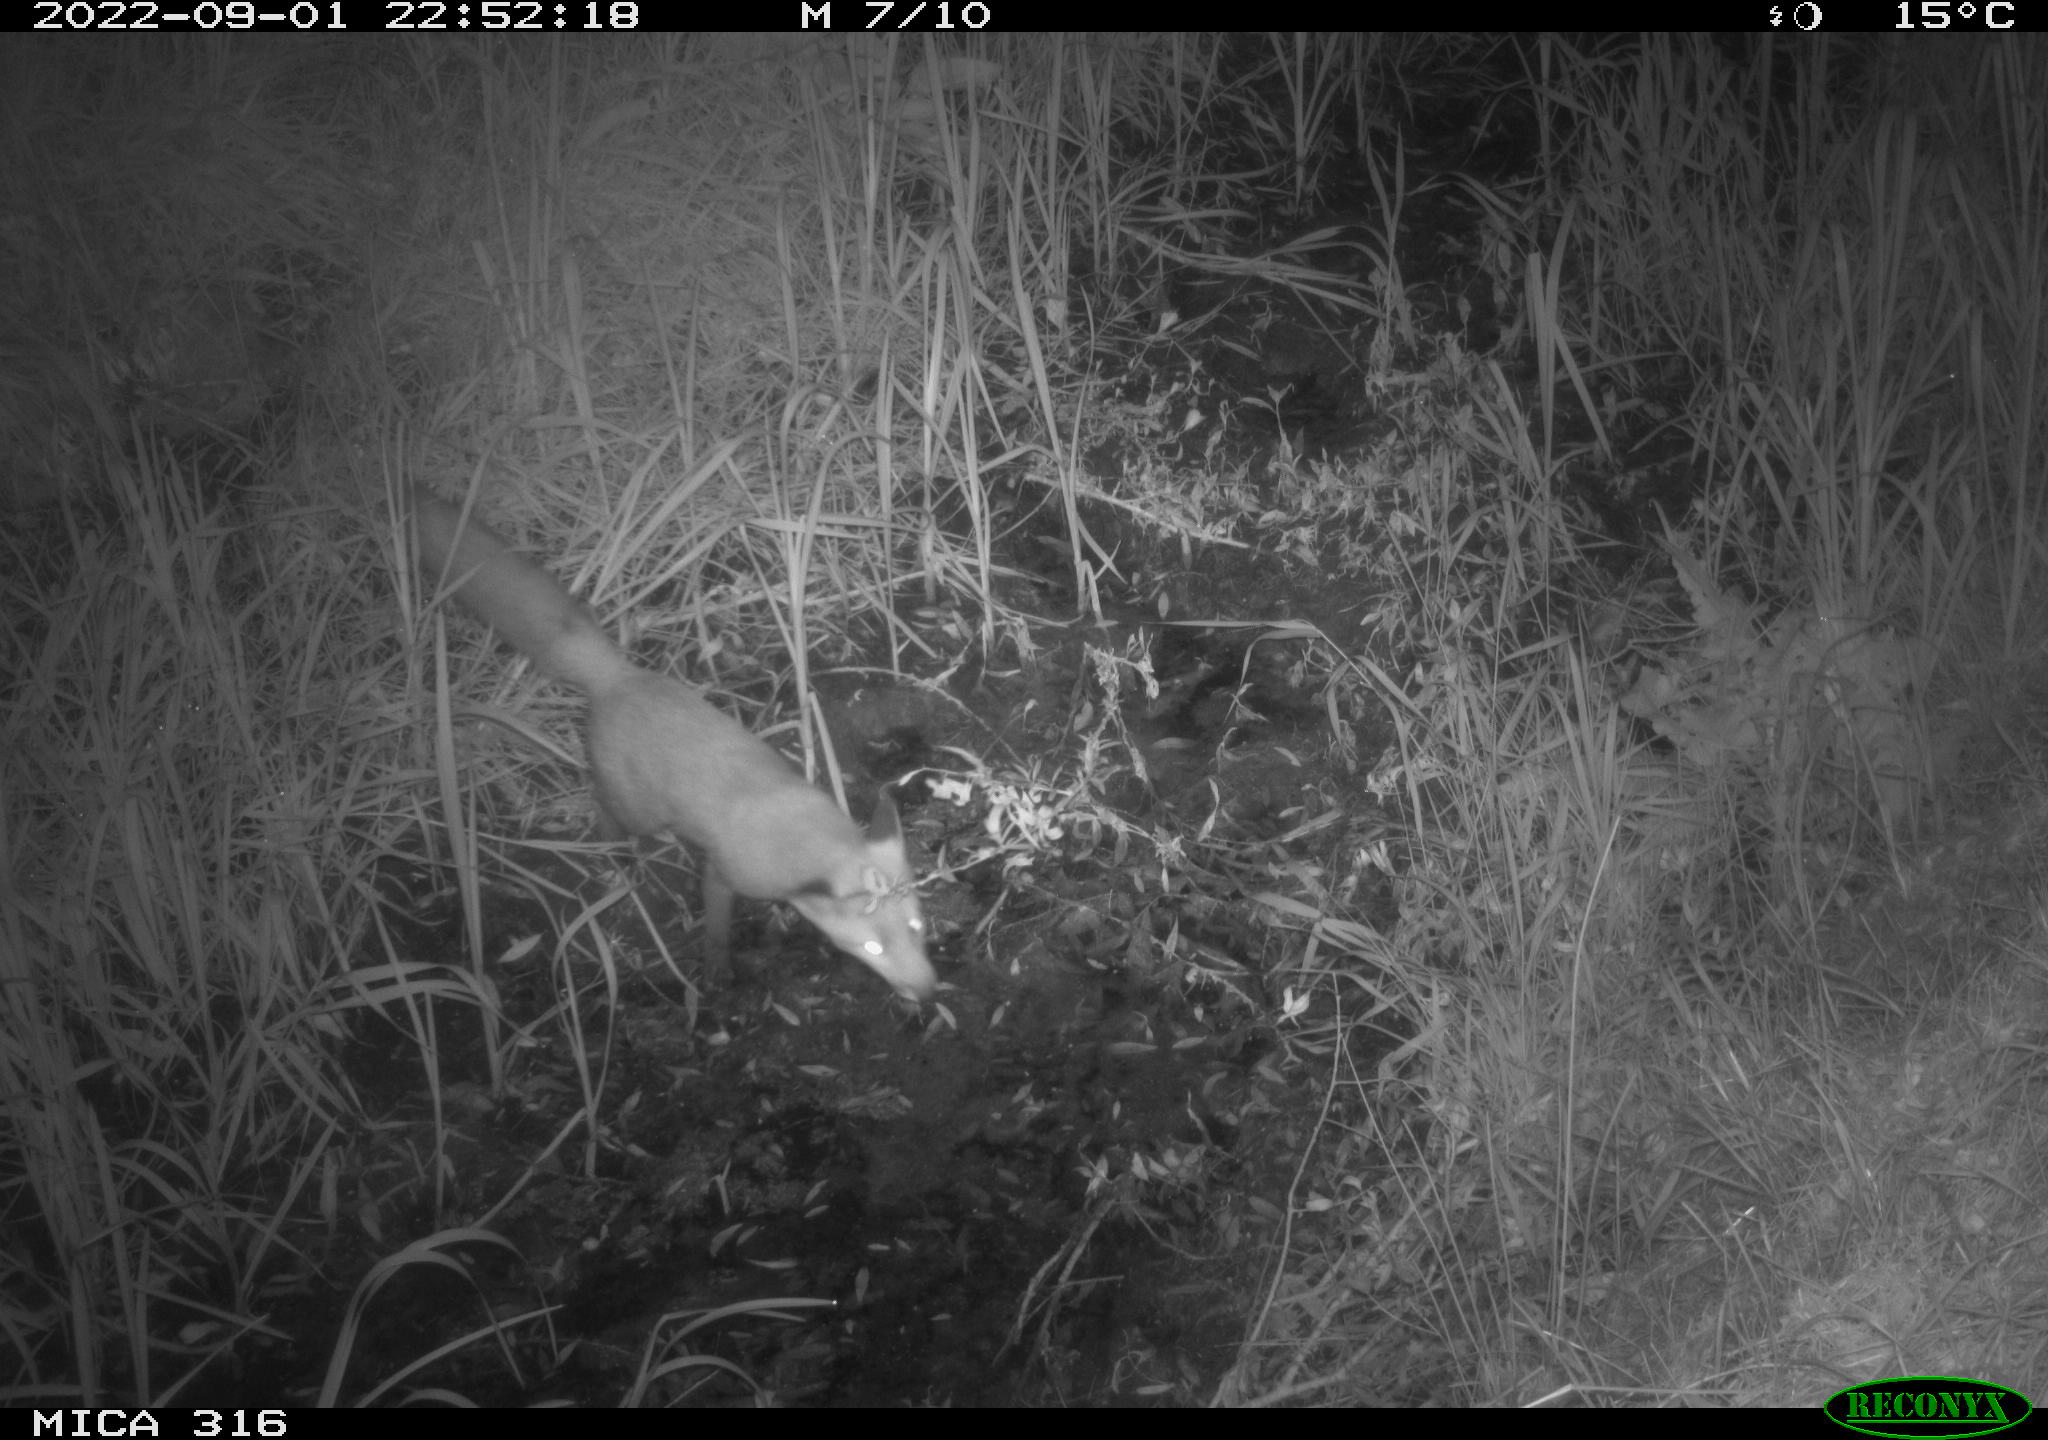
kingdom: Animalia
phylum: Chordata
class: Mammalia
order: Carnivora
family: Canidae
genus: Vulpes
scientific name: Vulpes vulpes
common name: Red fox
